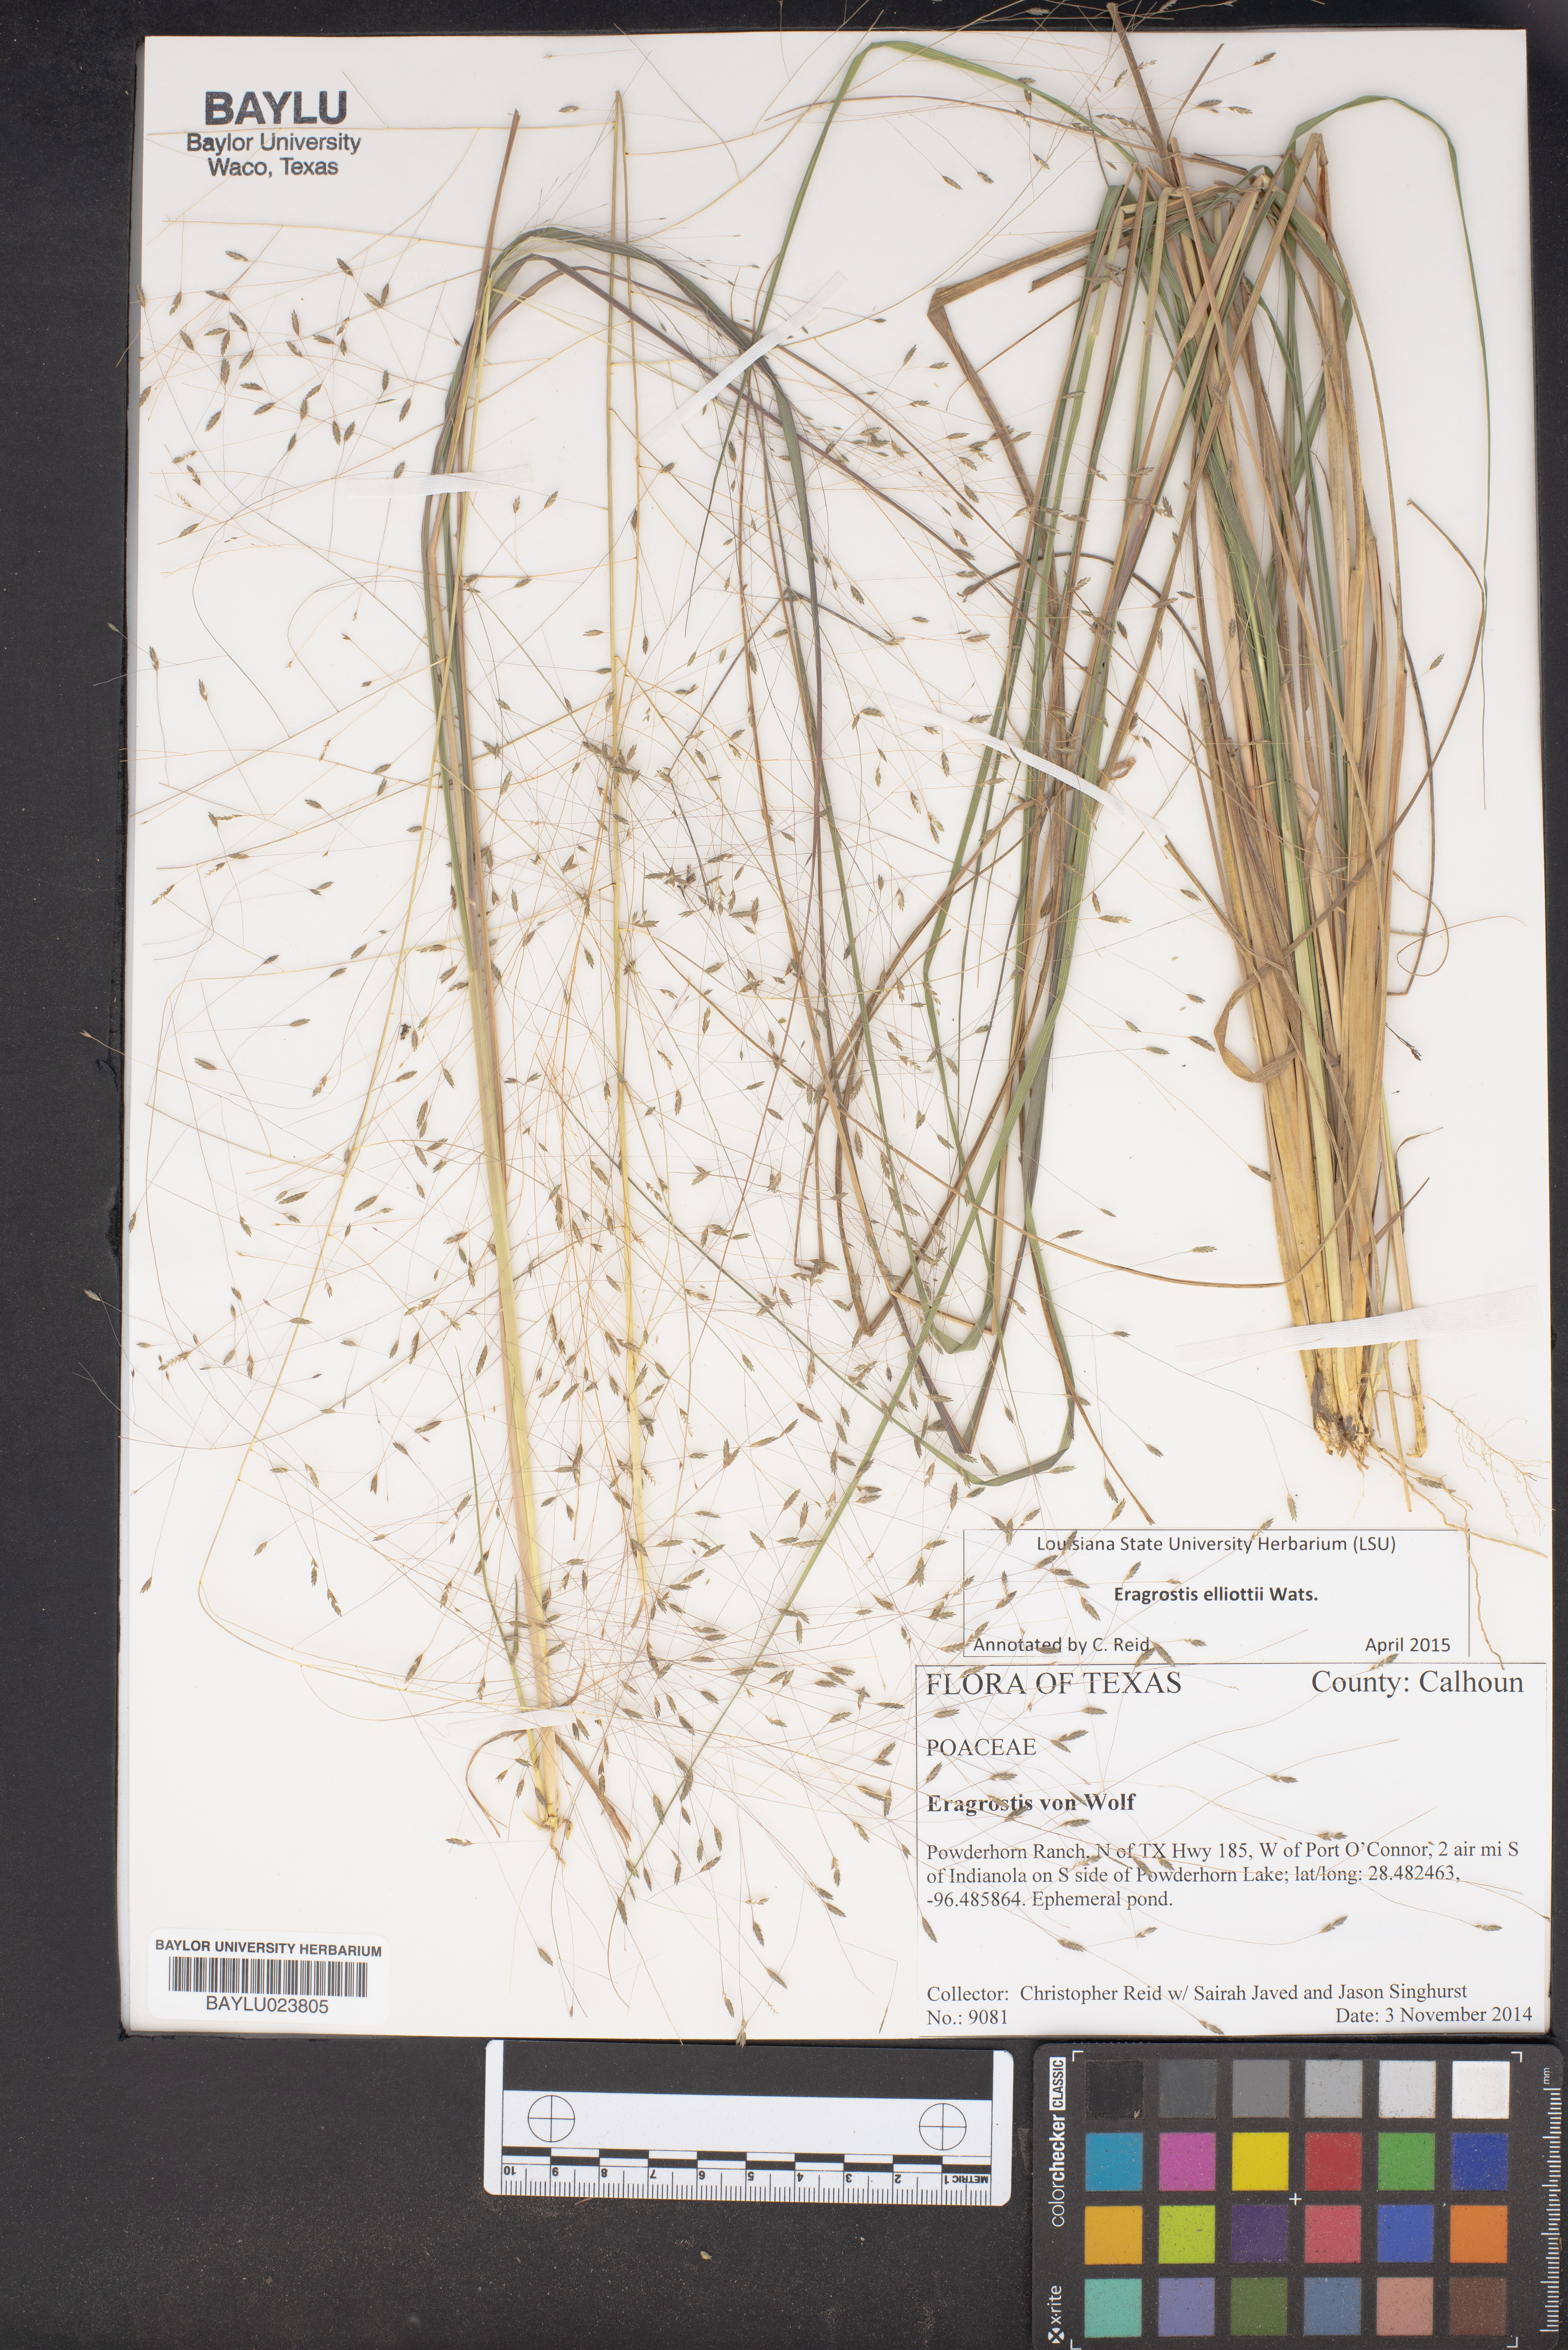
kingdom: Plantae
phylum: Tracheophyta
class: Liliopsida
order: Poales
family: Poaceae
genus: Eragrostis
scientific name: Eragrostis
